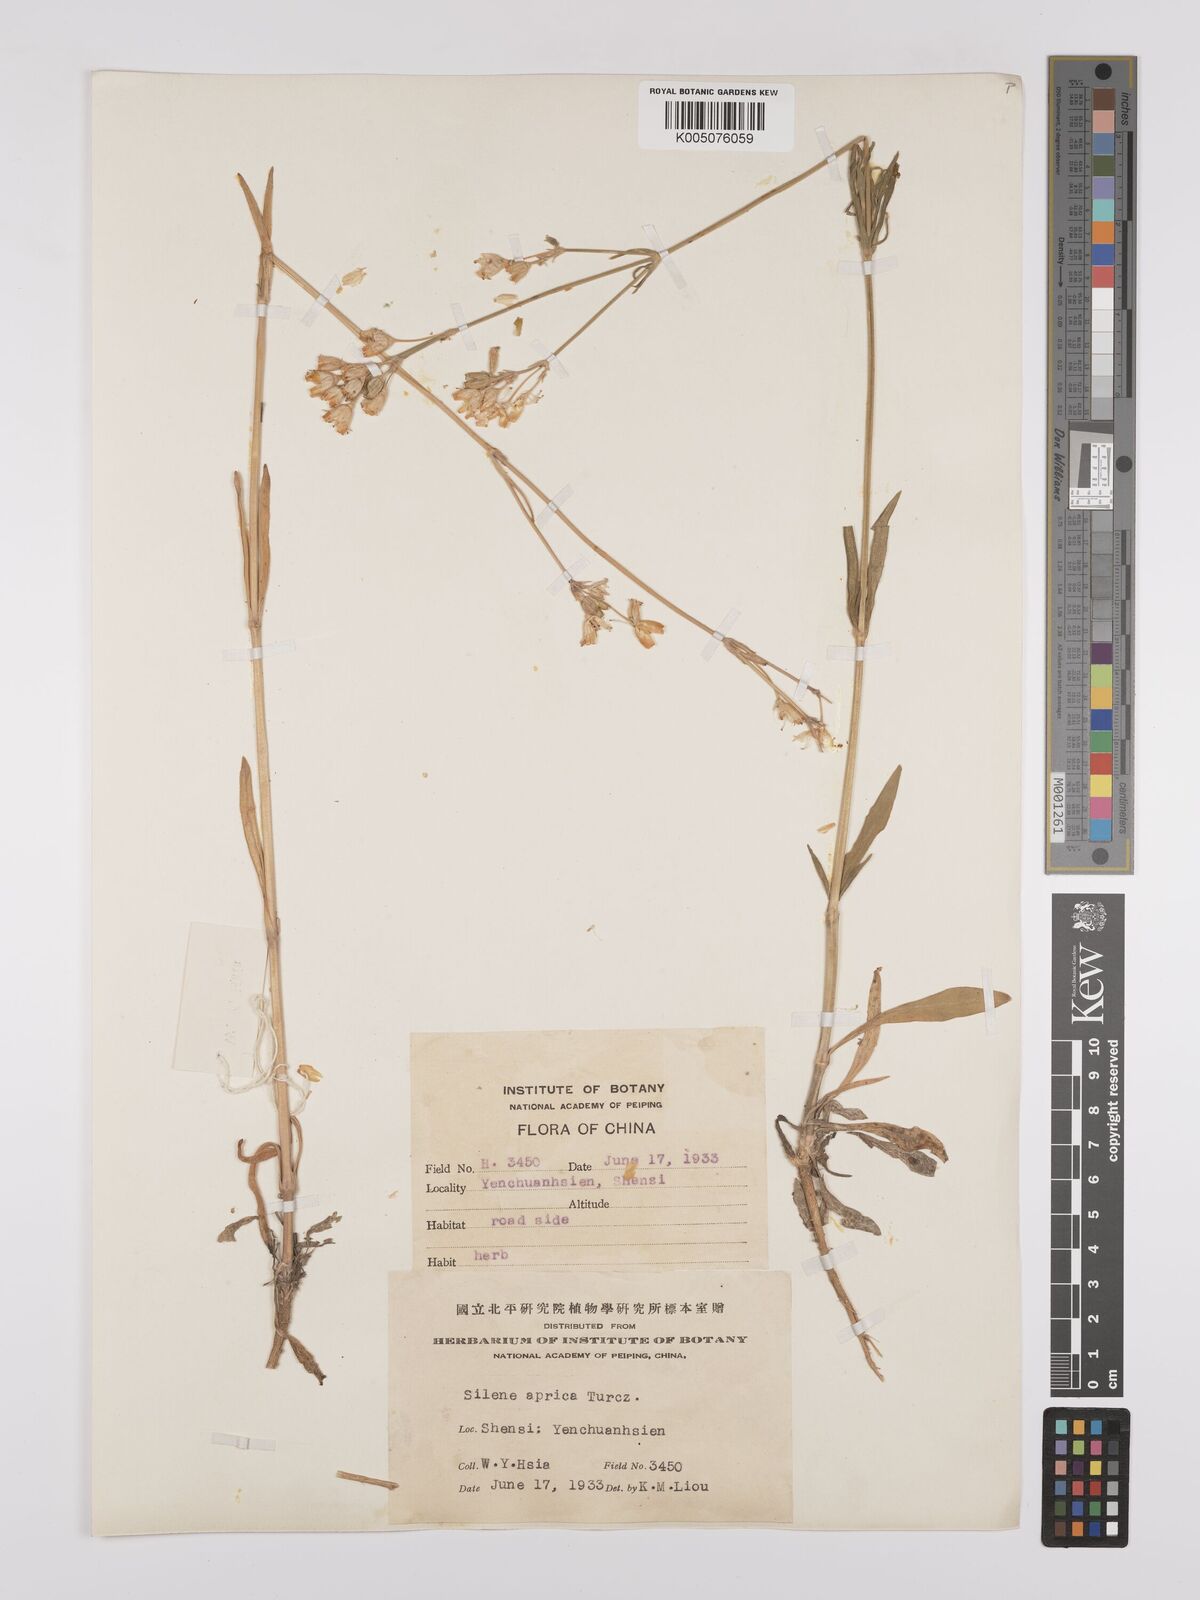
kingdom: Plantae
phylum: Tracheophyta
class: Magnoliopsida
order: Caryophyllales
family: Caryophyllaceae
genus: Silene
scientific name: Silene aprica
